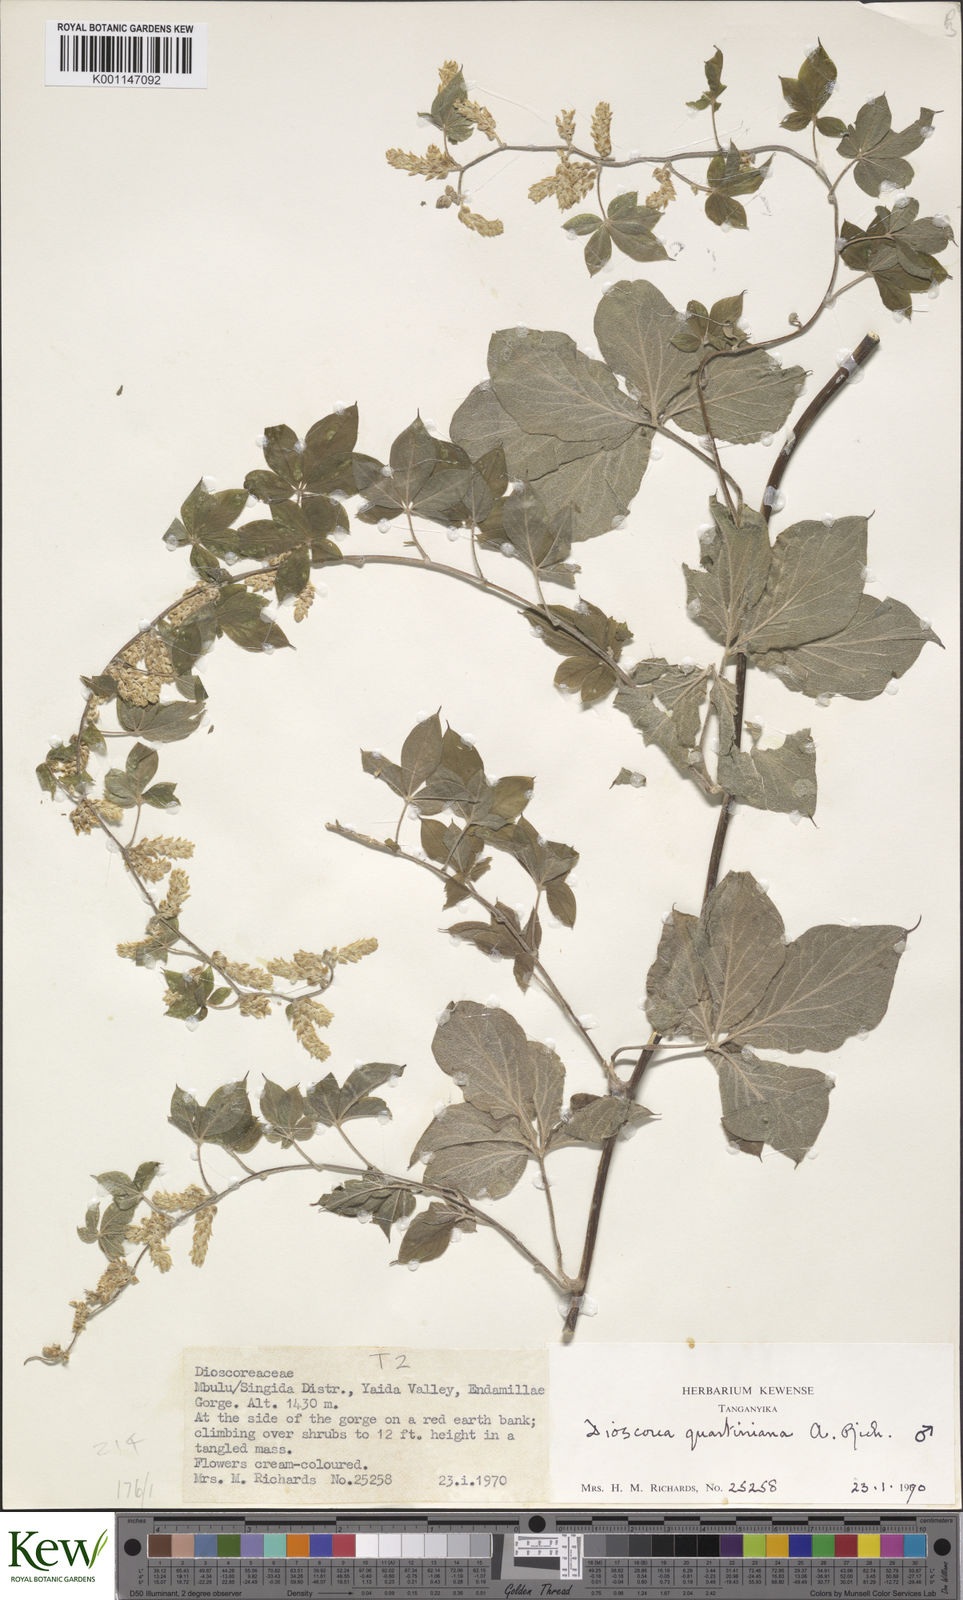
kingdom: Plantae
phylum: Tracheophyta
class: Liliopsida
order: Dioscoreales
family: Dioscoreaceae
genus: Dioscorea
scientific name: Dioscorea quartiniana
